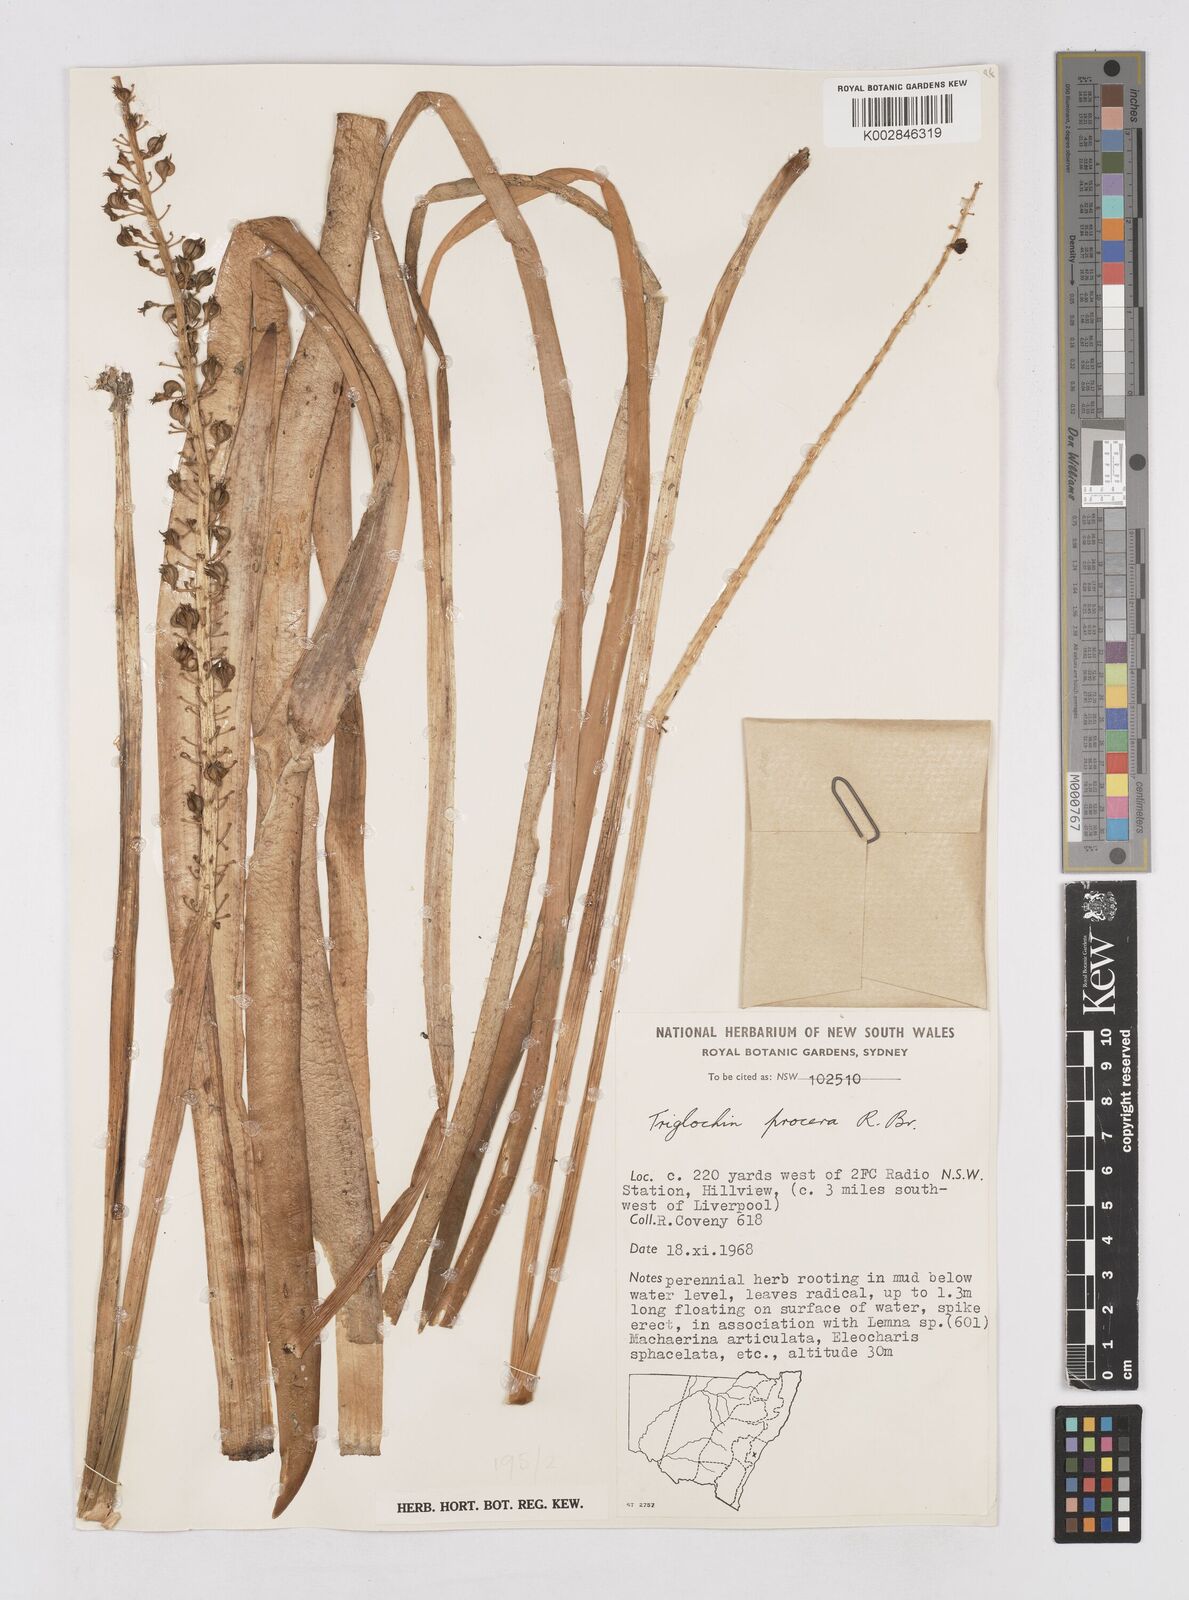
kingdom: Plantae
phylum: Tracheophyta
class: Liliopsida
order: Asparagales
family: Asphodelaceae
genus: Xanthorrhoea
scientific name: Xanthorrhoea
